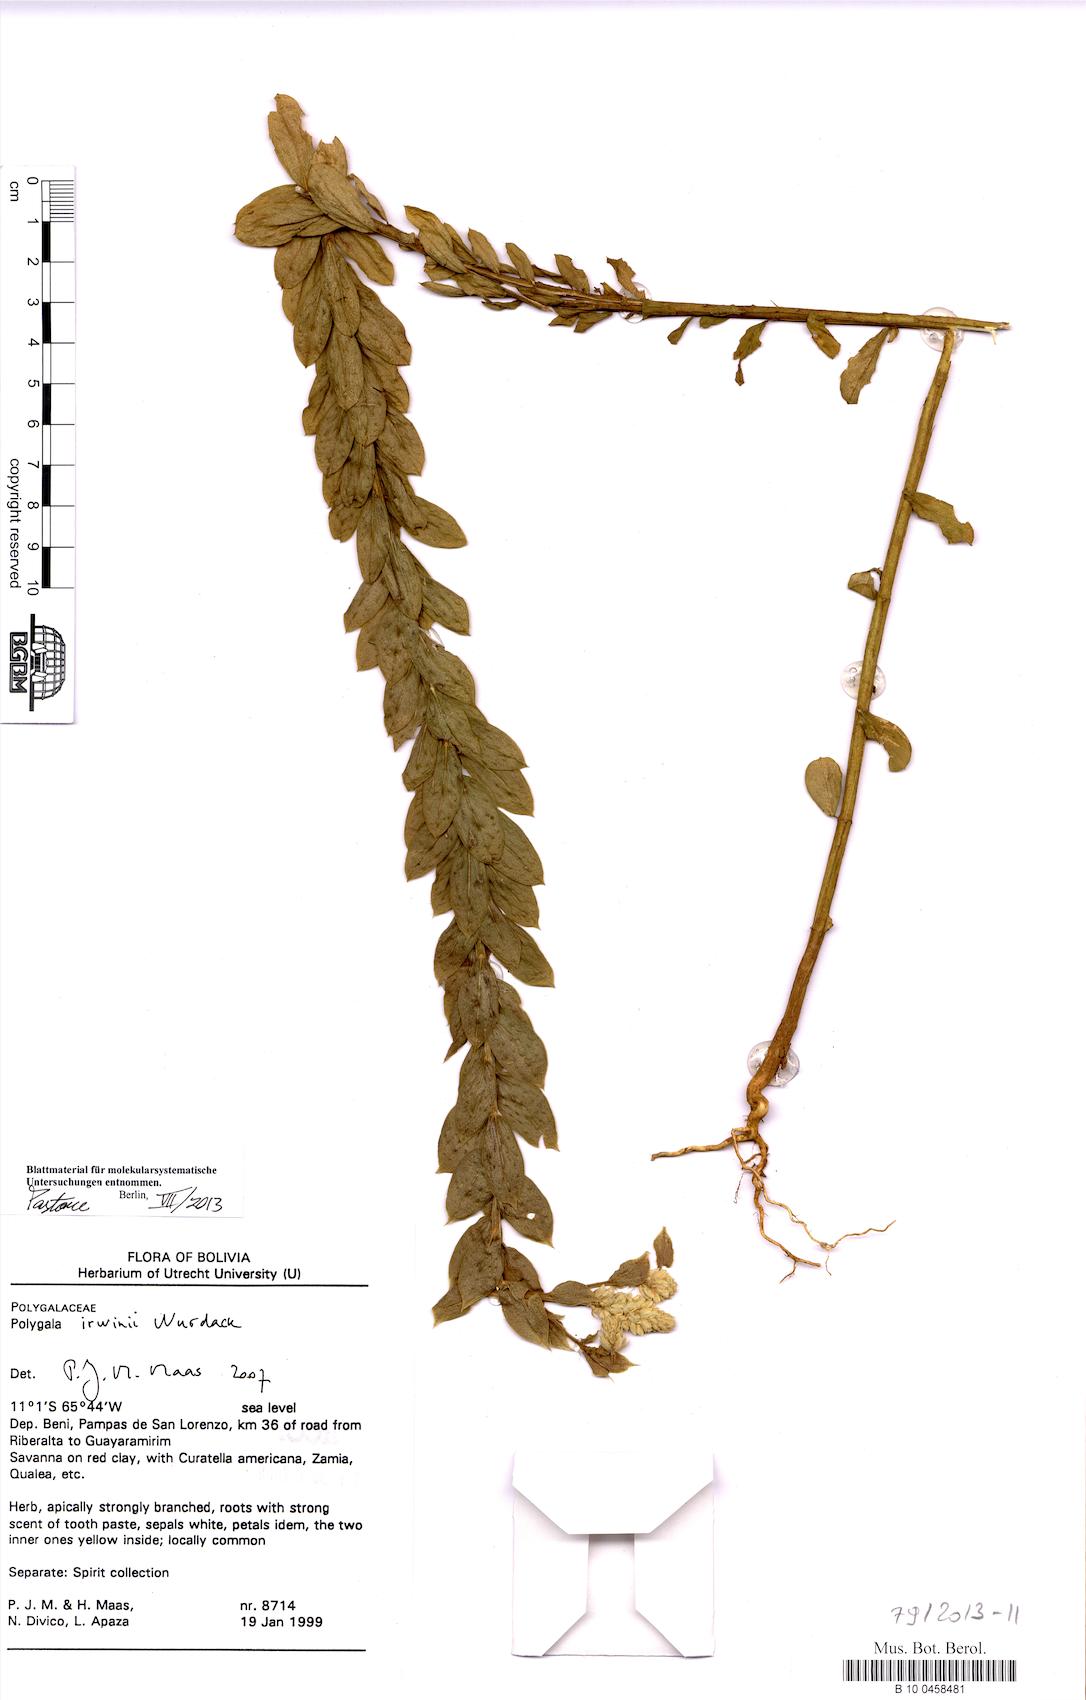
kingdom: Plantae
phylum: Tracheophyta
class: Magnoliopsida
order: Fabales
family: Polygalaceae
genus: Polygala
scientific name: Polygala irwinii
